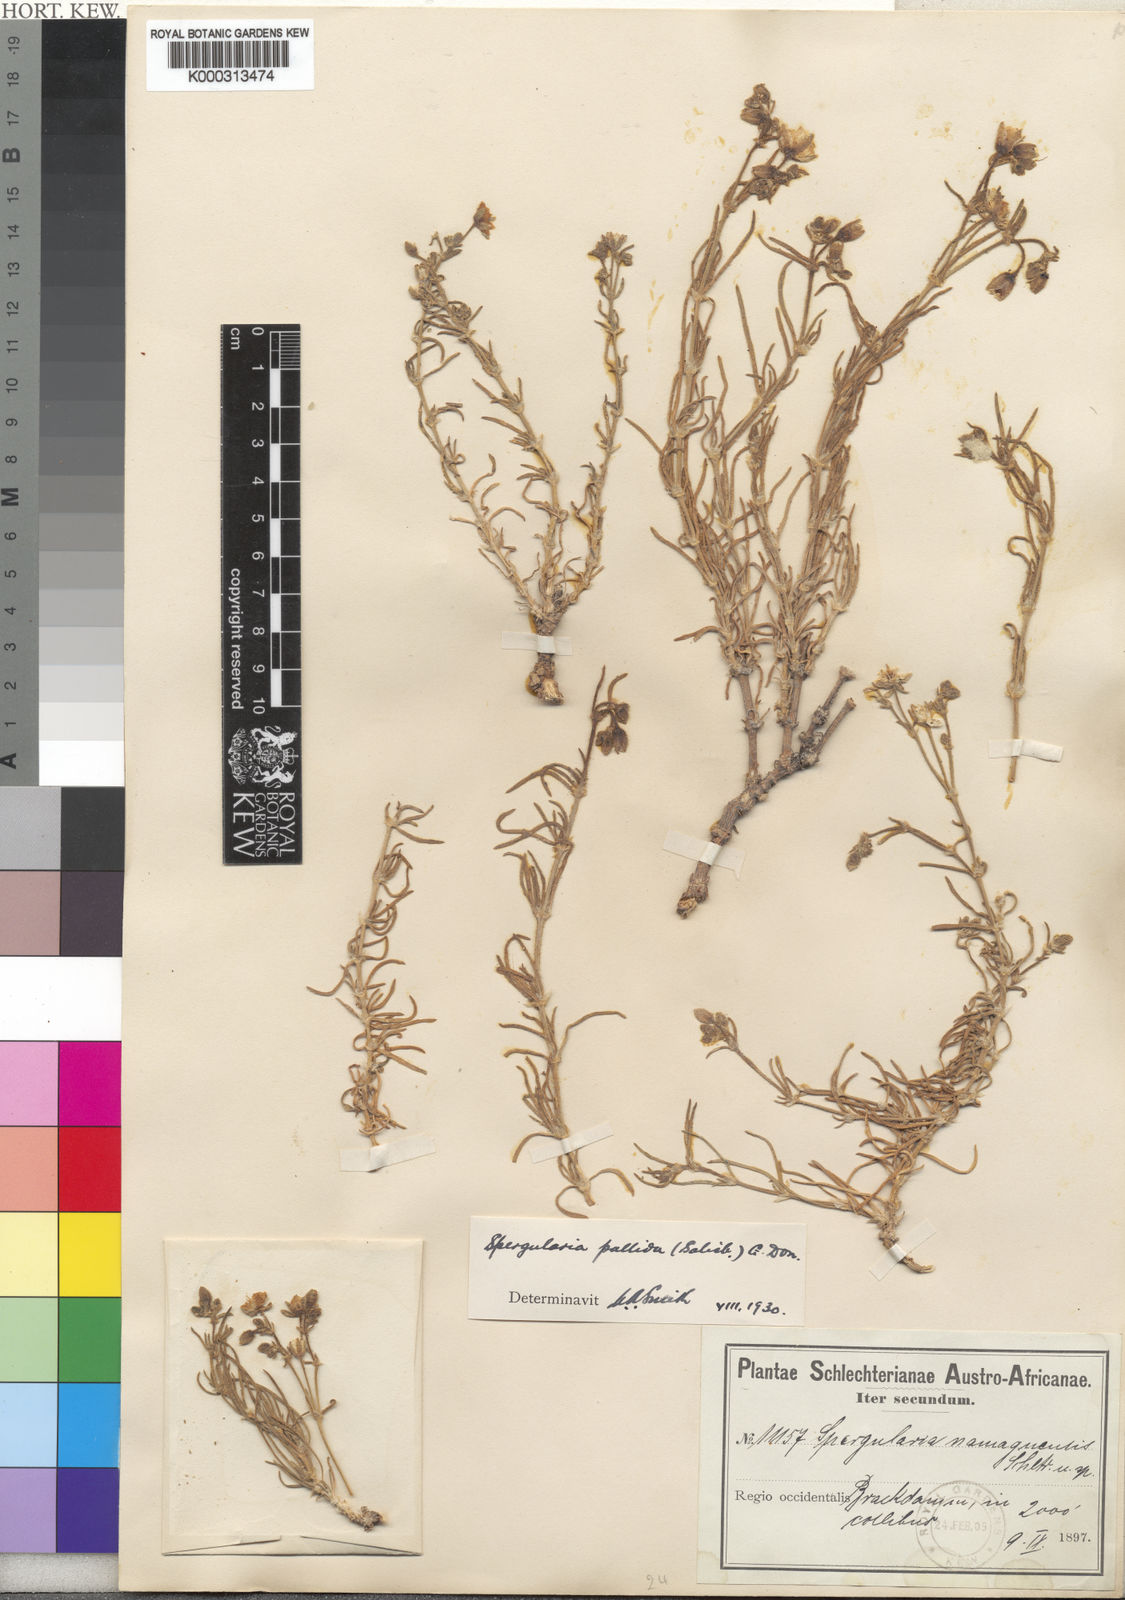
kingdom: Plantae
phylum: Tracheophyta
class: Magnoliopsida
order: Caryophyllales
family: Caryophyllaceae
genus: Spergularia
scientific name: Spergularia media
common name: Greater sea-spurrey
